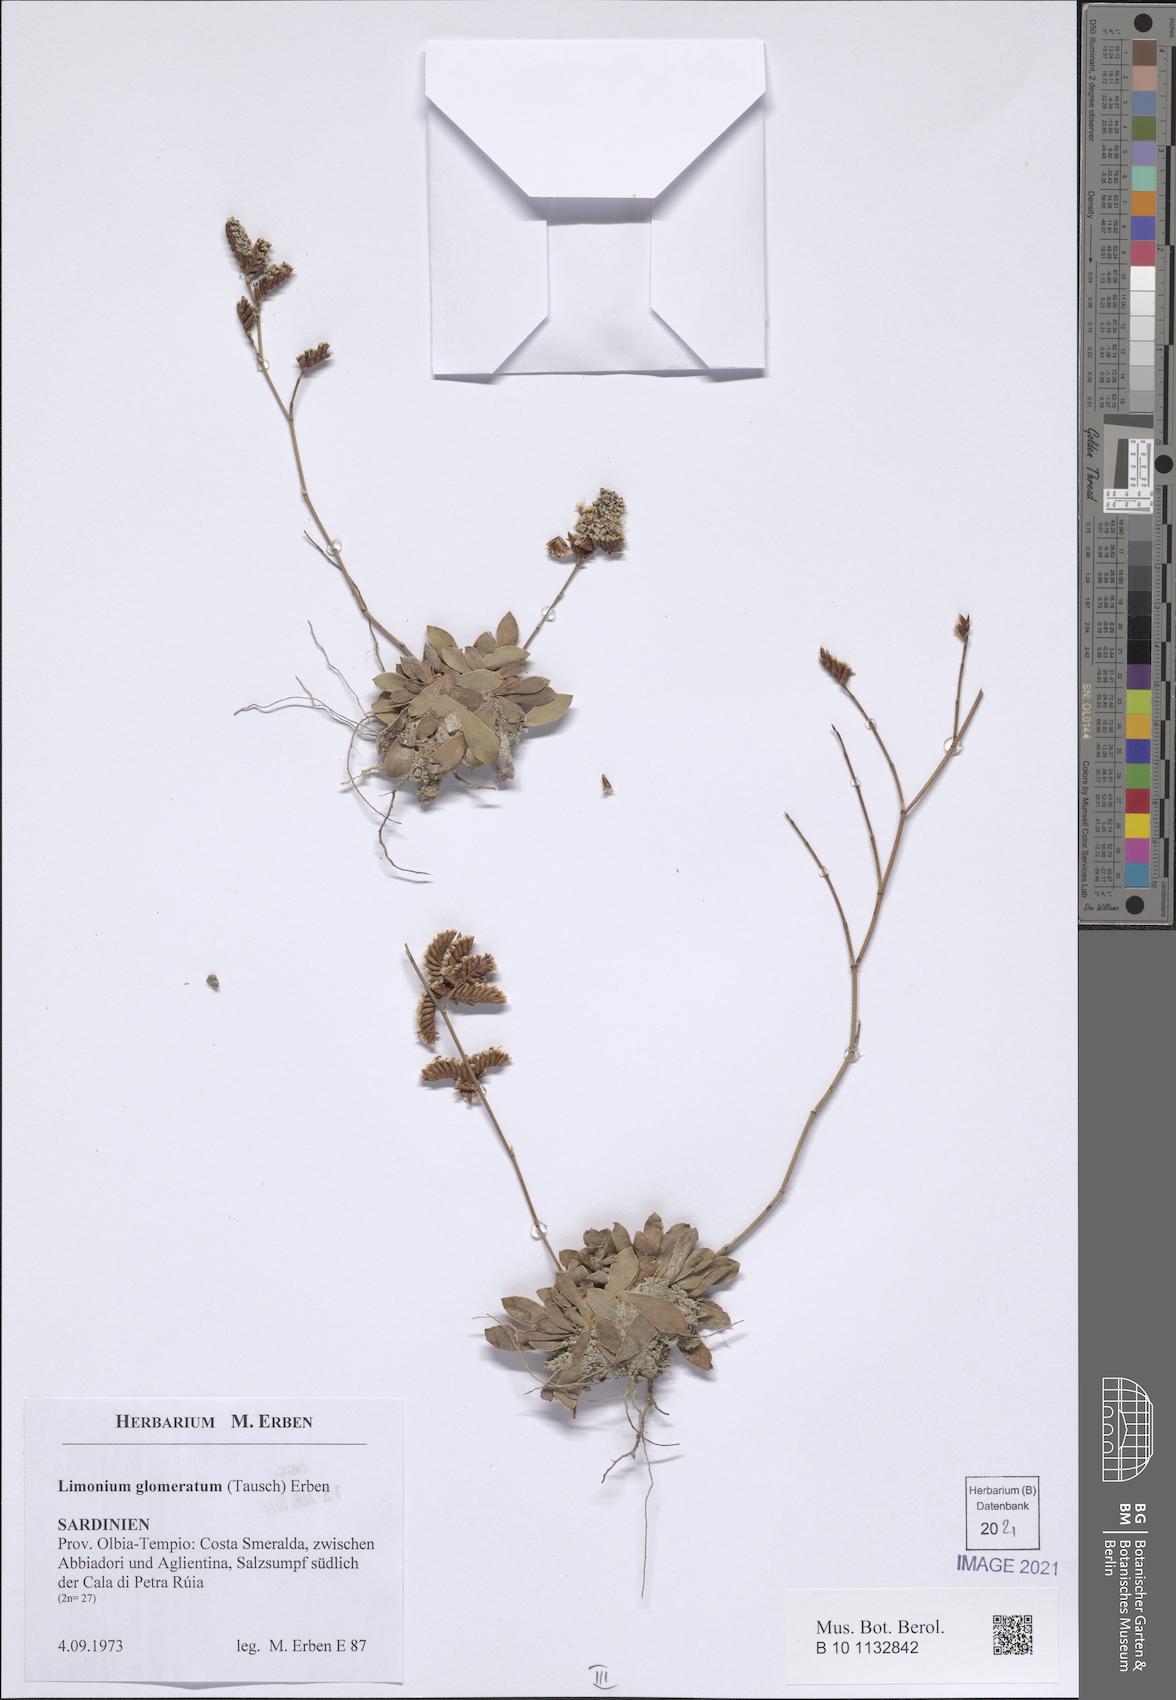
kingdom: Plantae
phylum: Tracheophyta
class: Magnoliopsida
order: Caryophyllales
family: Plumbaginaceae
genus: Limonium
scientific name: Limonium glomeratum
